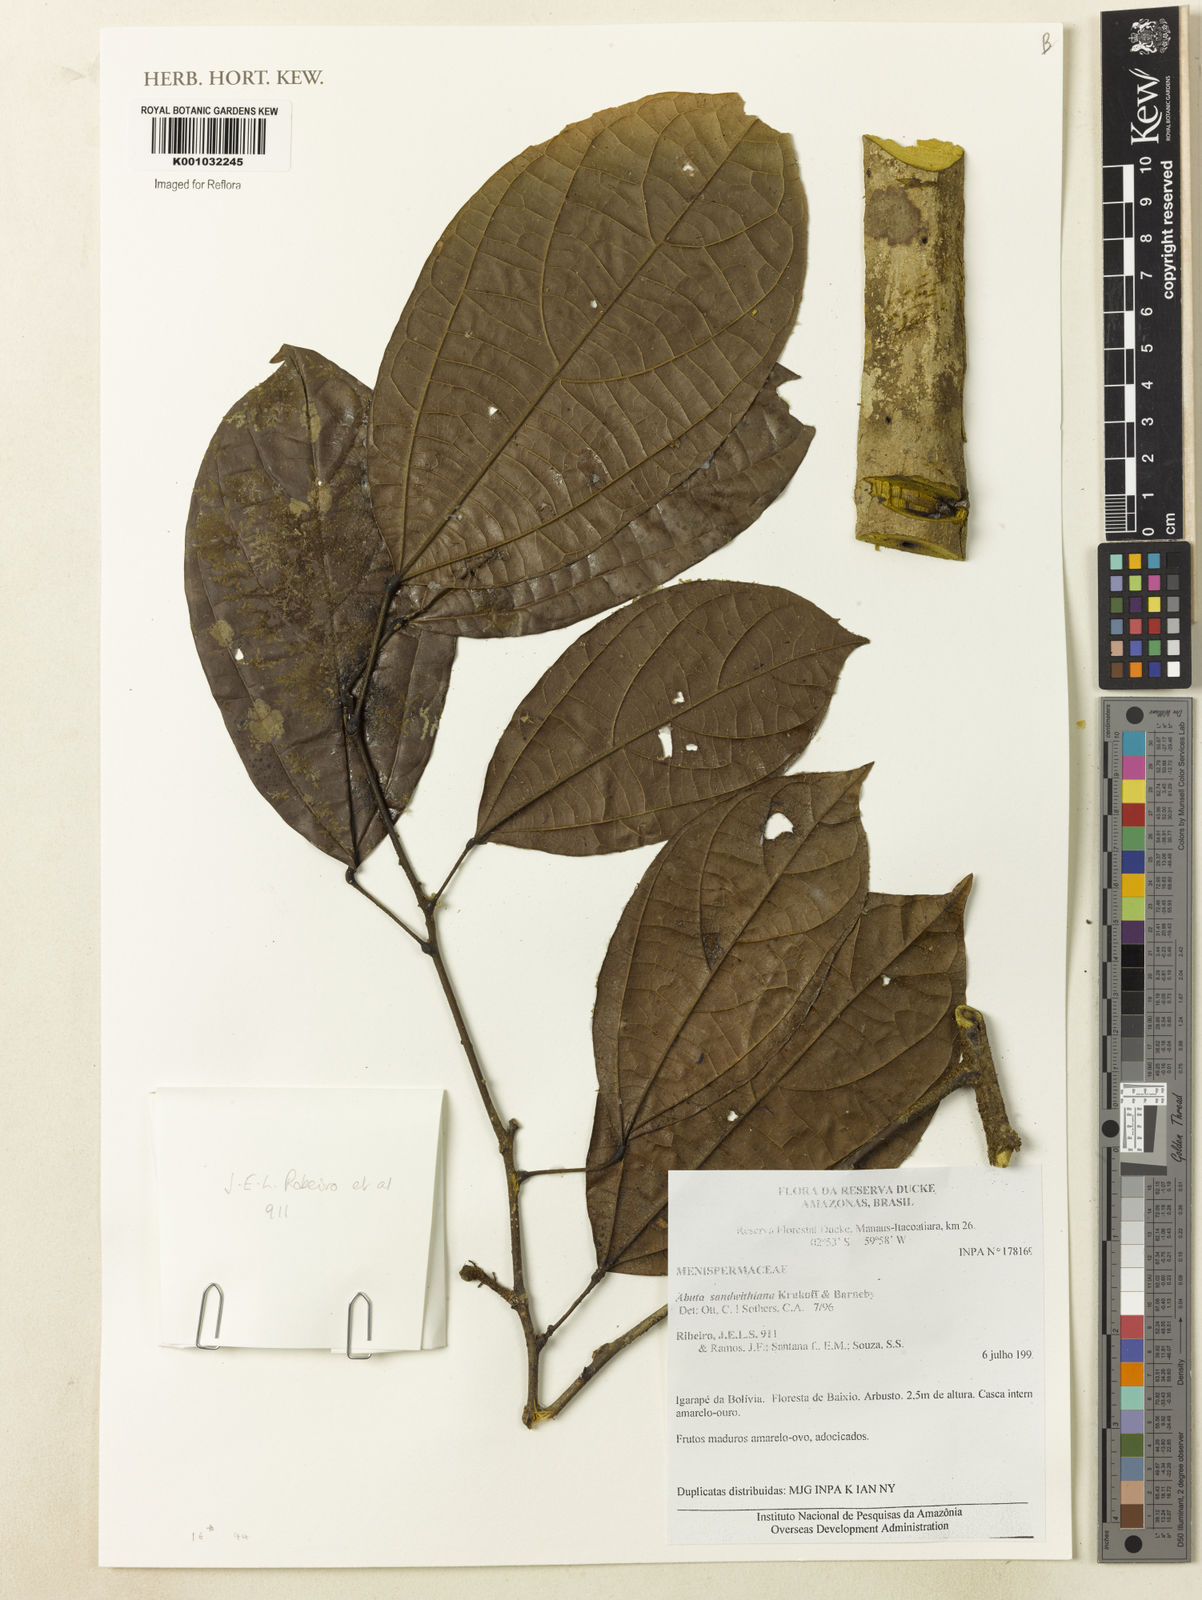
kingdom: Plantae
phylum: Tracheophyta
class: Magnoliopsida
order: Ranunculales
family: Menispermaceae
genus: Abuta
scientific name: Abuta sandwithiana
